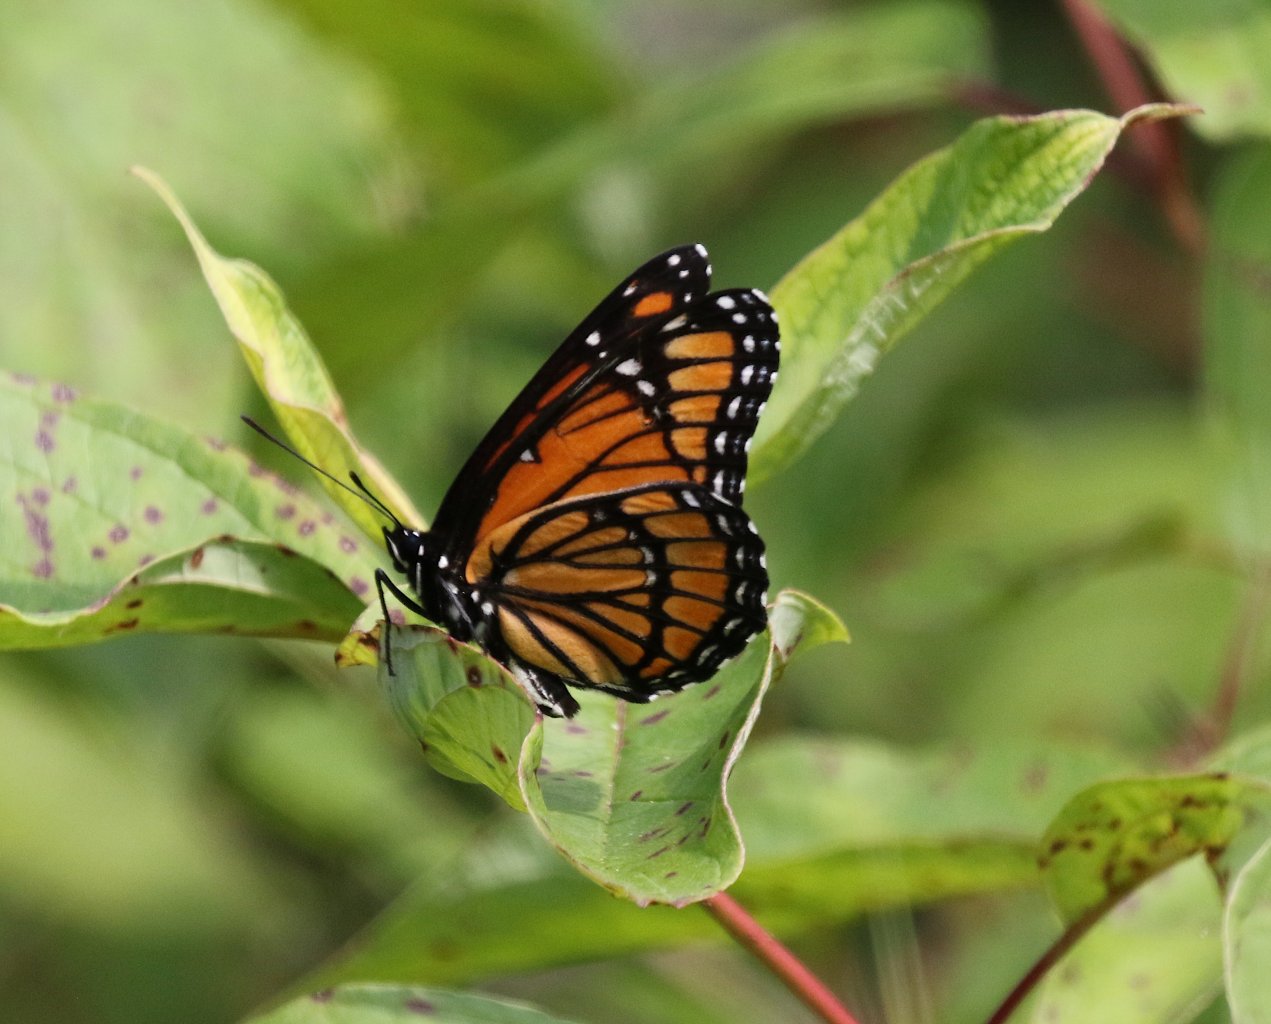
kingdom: Animalia
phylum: Arthropoda
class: Insecta
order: Lepidoptera
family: Nymphalidae
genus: Limenitis
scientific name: Limenitis archippus
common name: Viceroy
